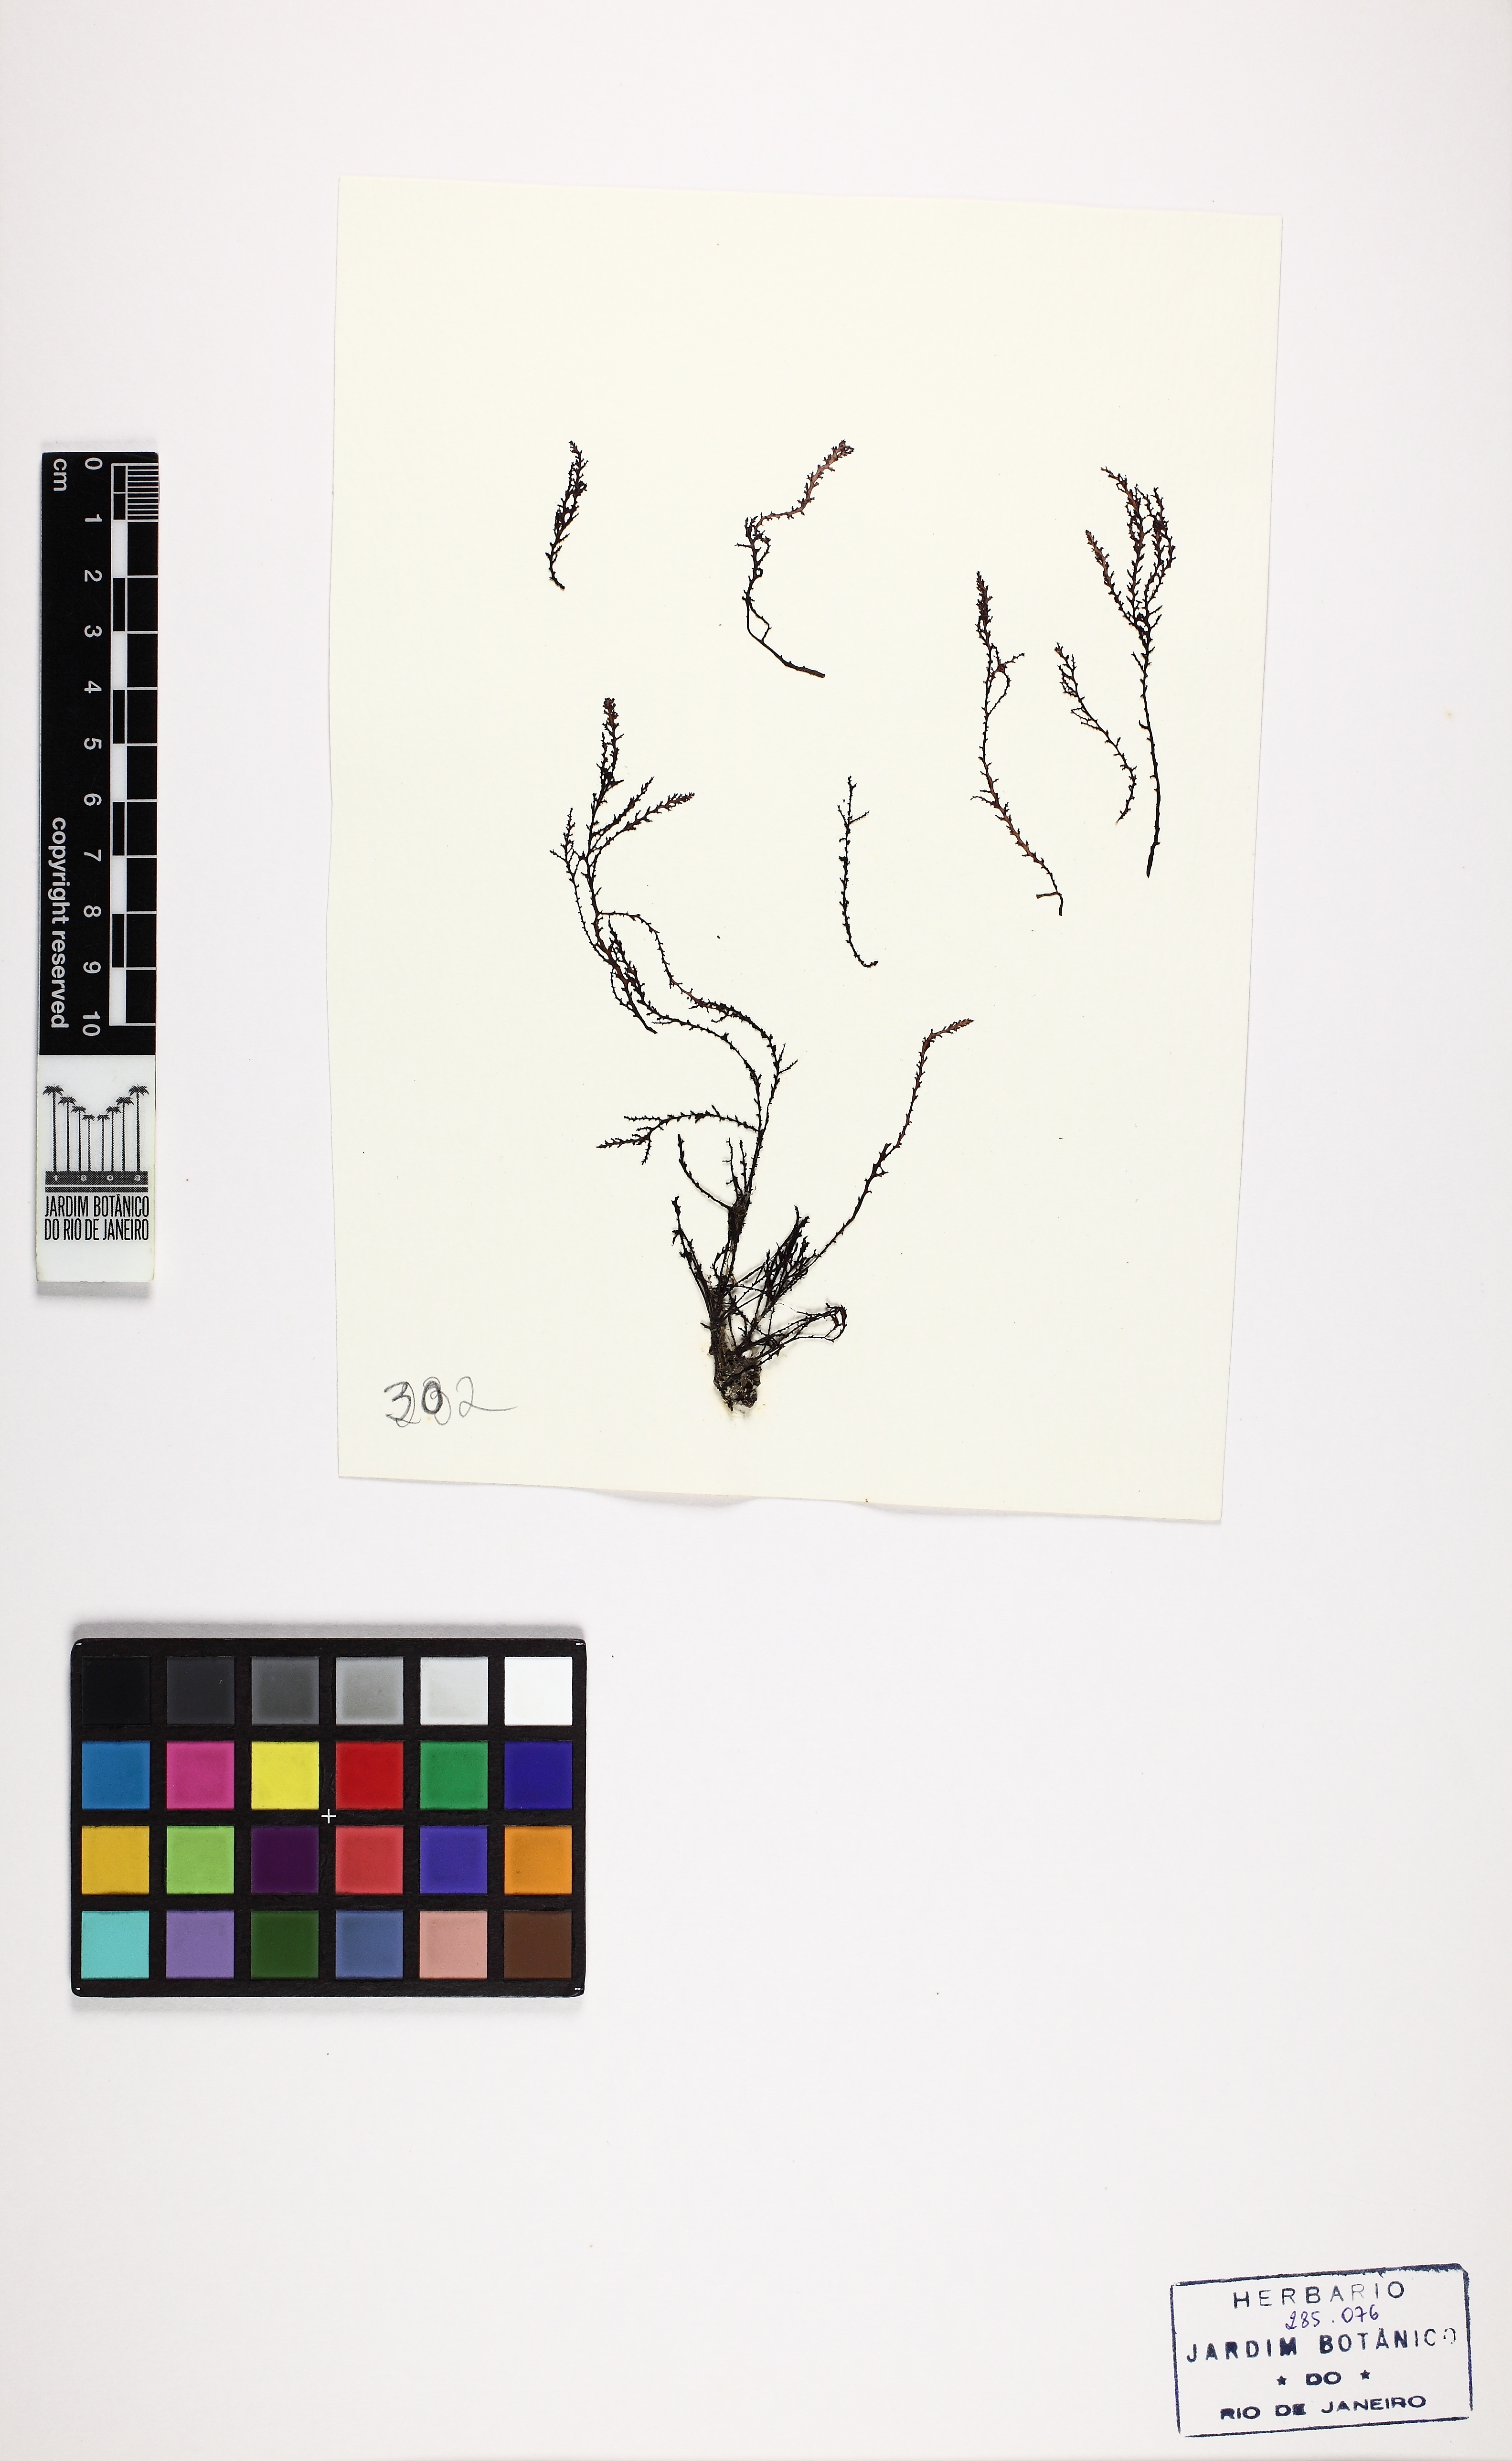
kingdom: Plantae
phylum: Rhodophyta
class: Florideophyceae
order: Ceramiales
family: Rhodomelaceae
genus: Acanthophora
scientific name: Acanthophora spicifera
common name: Red algae
